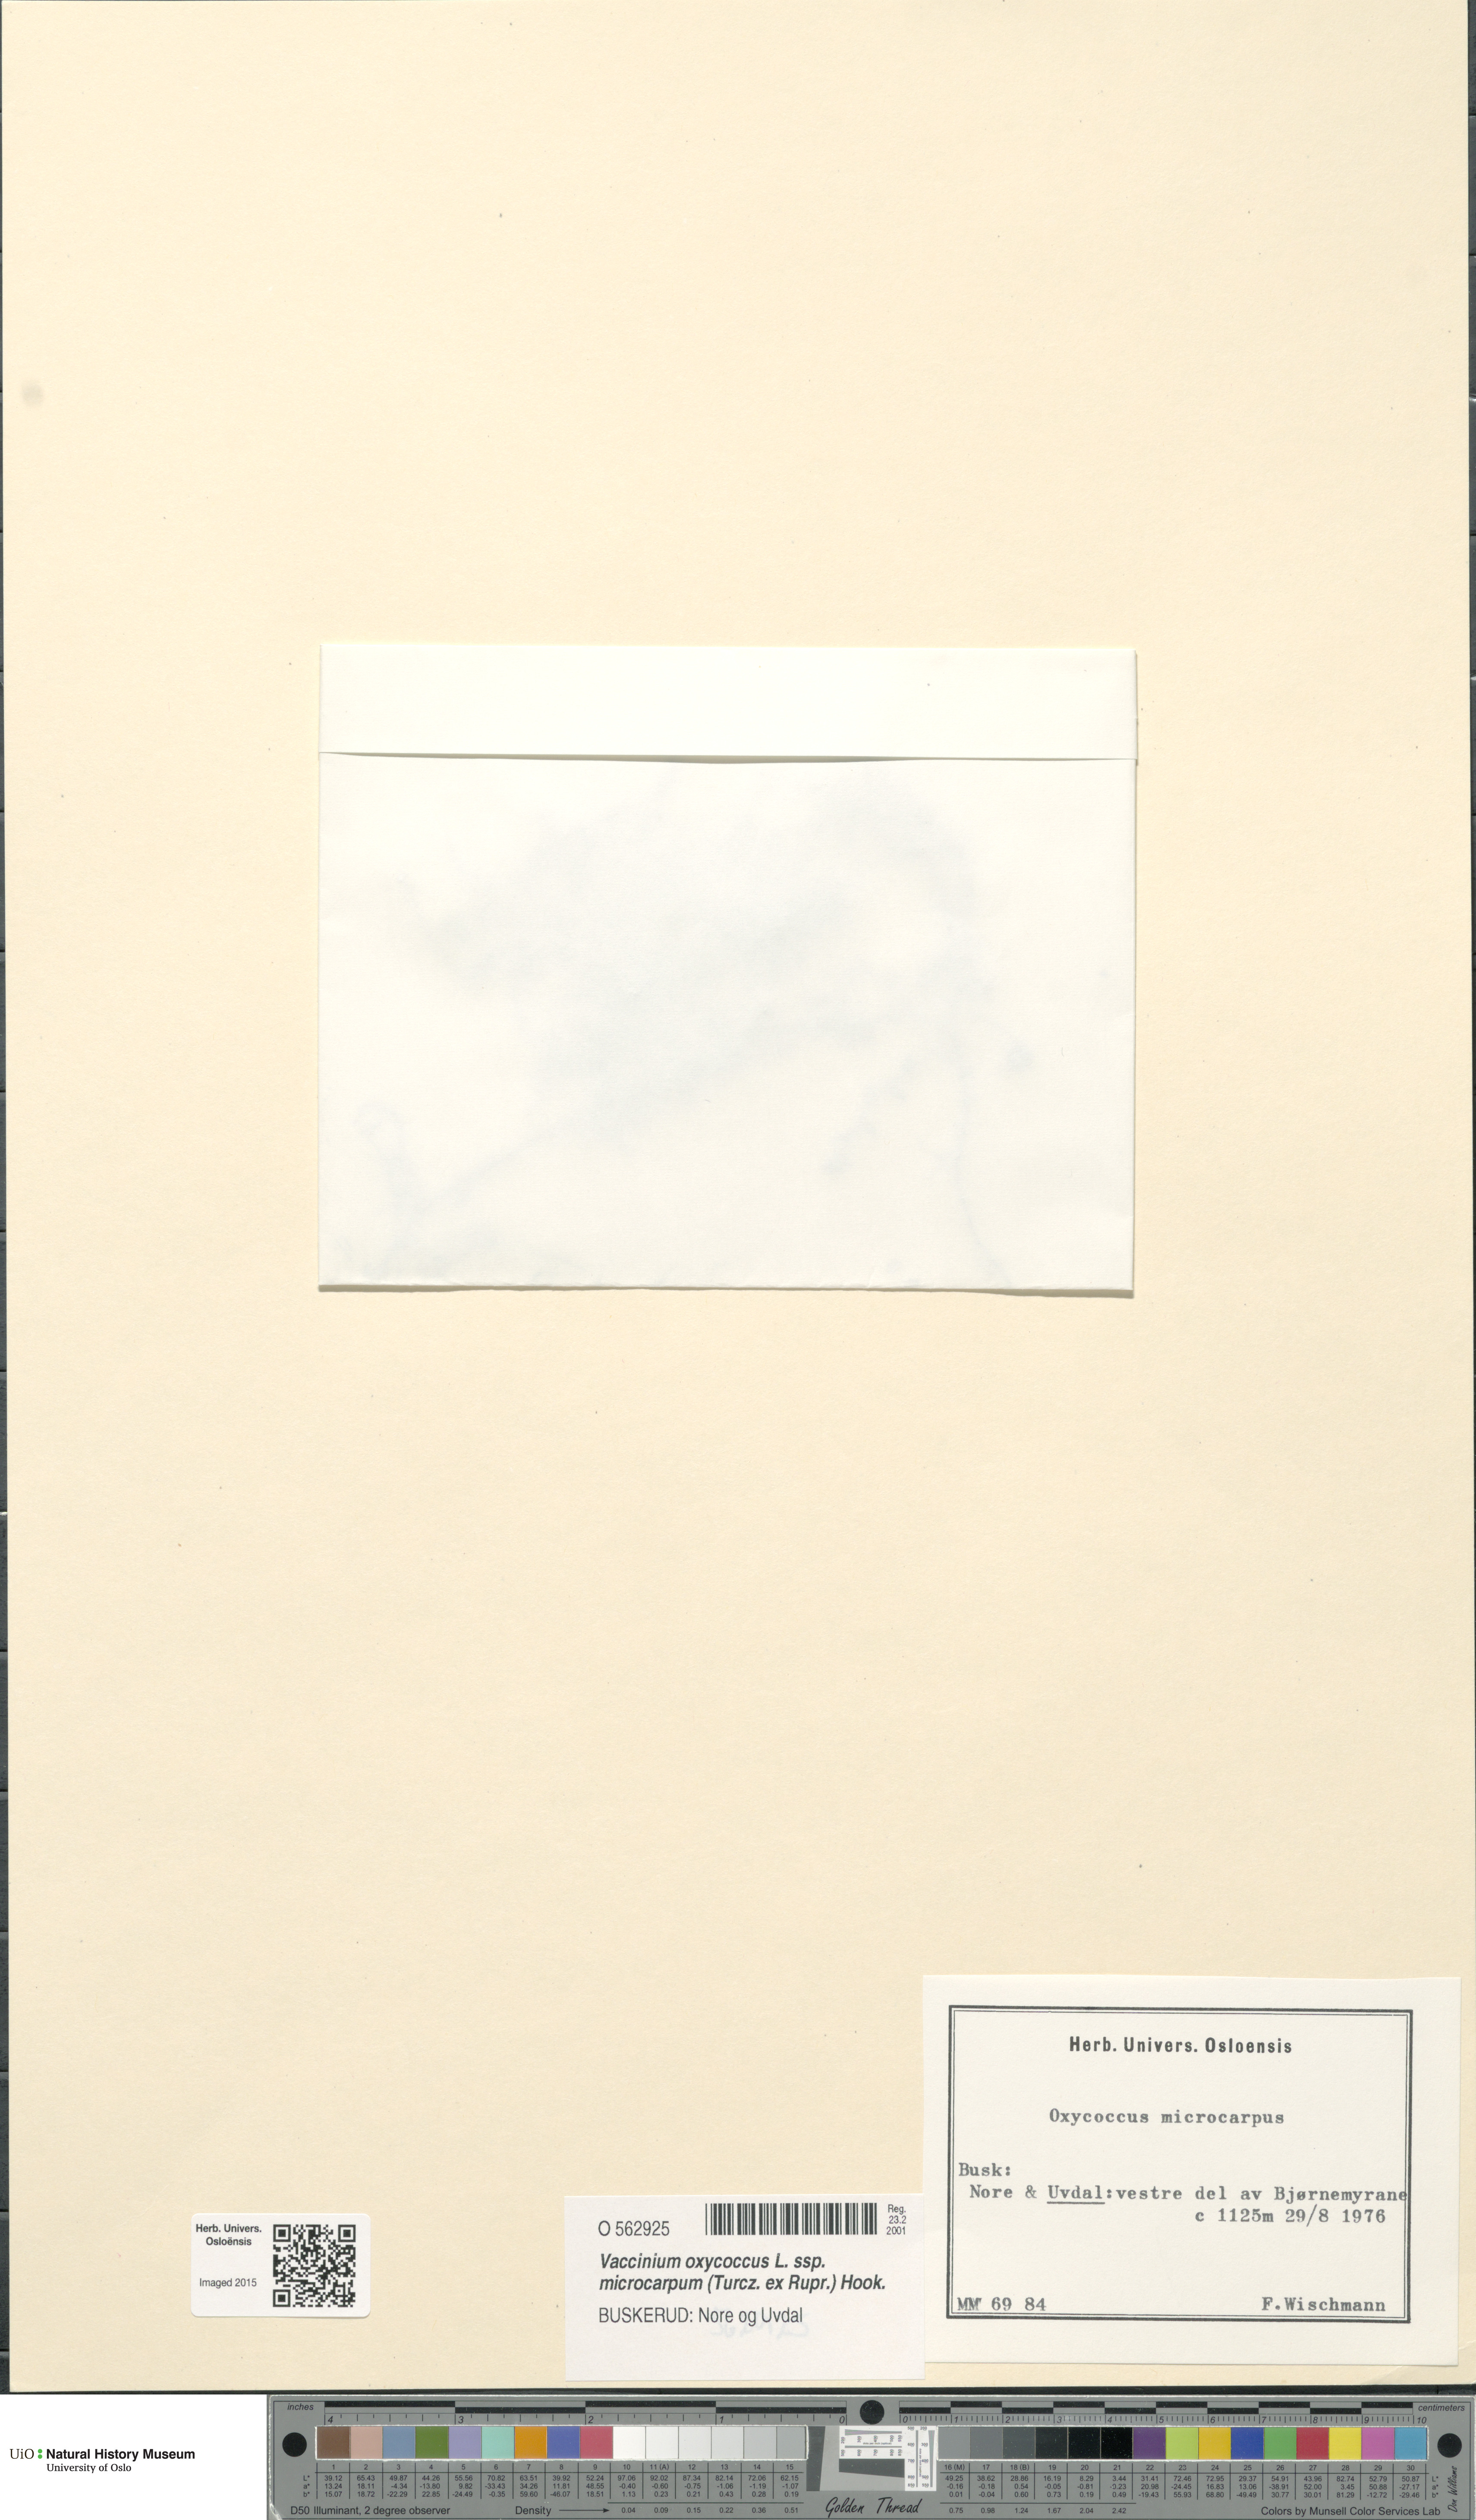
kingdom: Plantae
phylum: Tracheophyta
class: Magnoliopsida
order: Ericales
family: Ericaceae
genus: Vaccinium
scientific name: Vaccinium microcarpum
